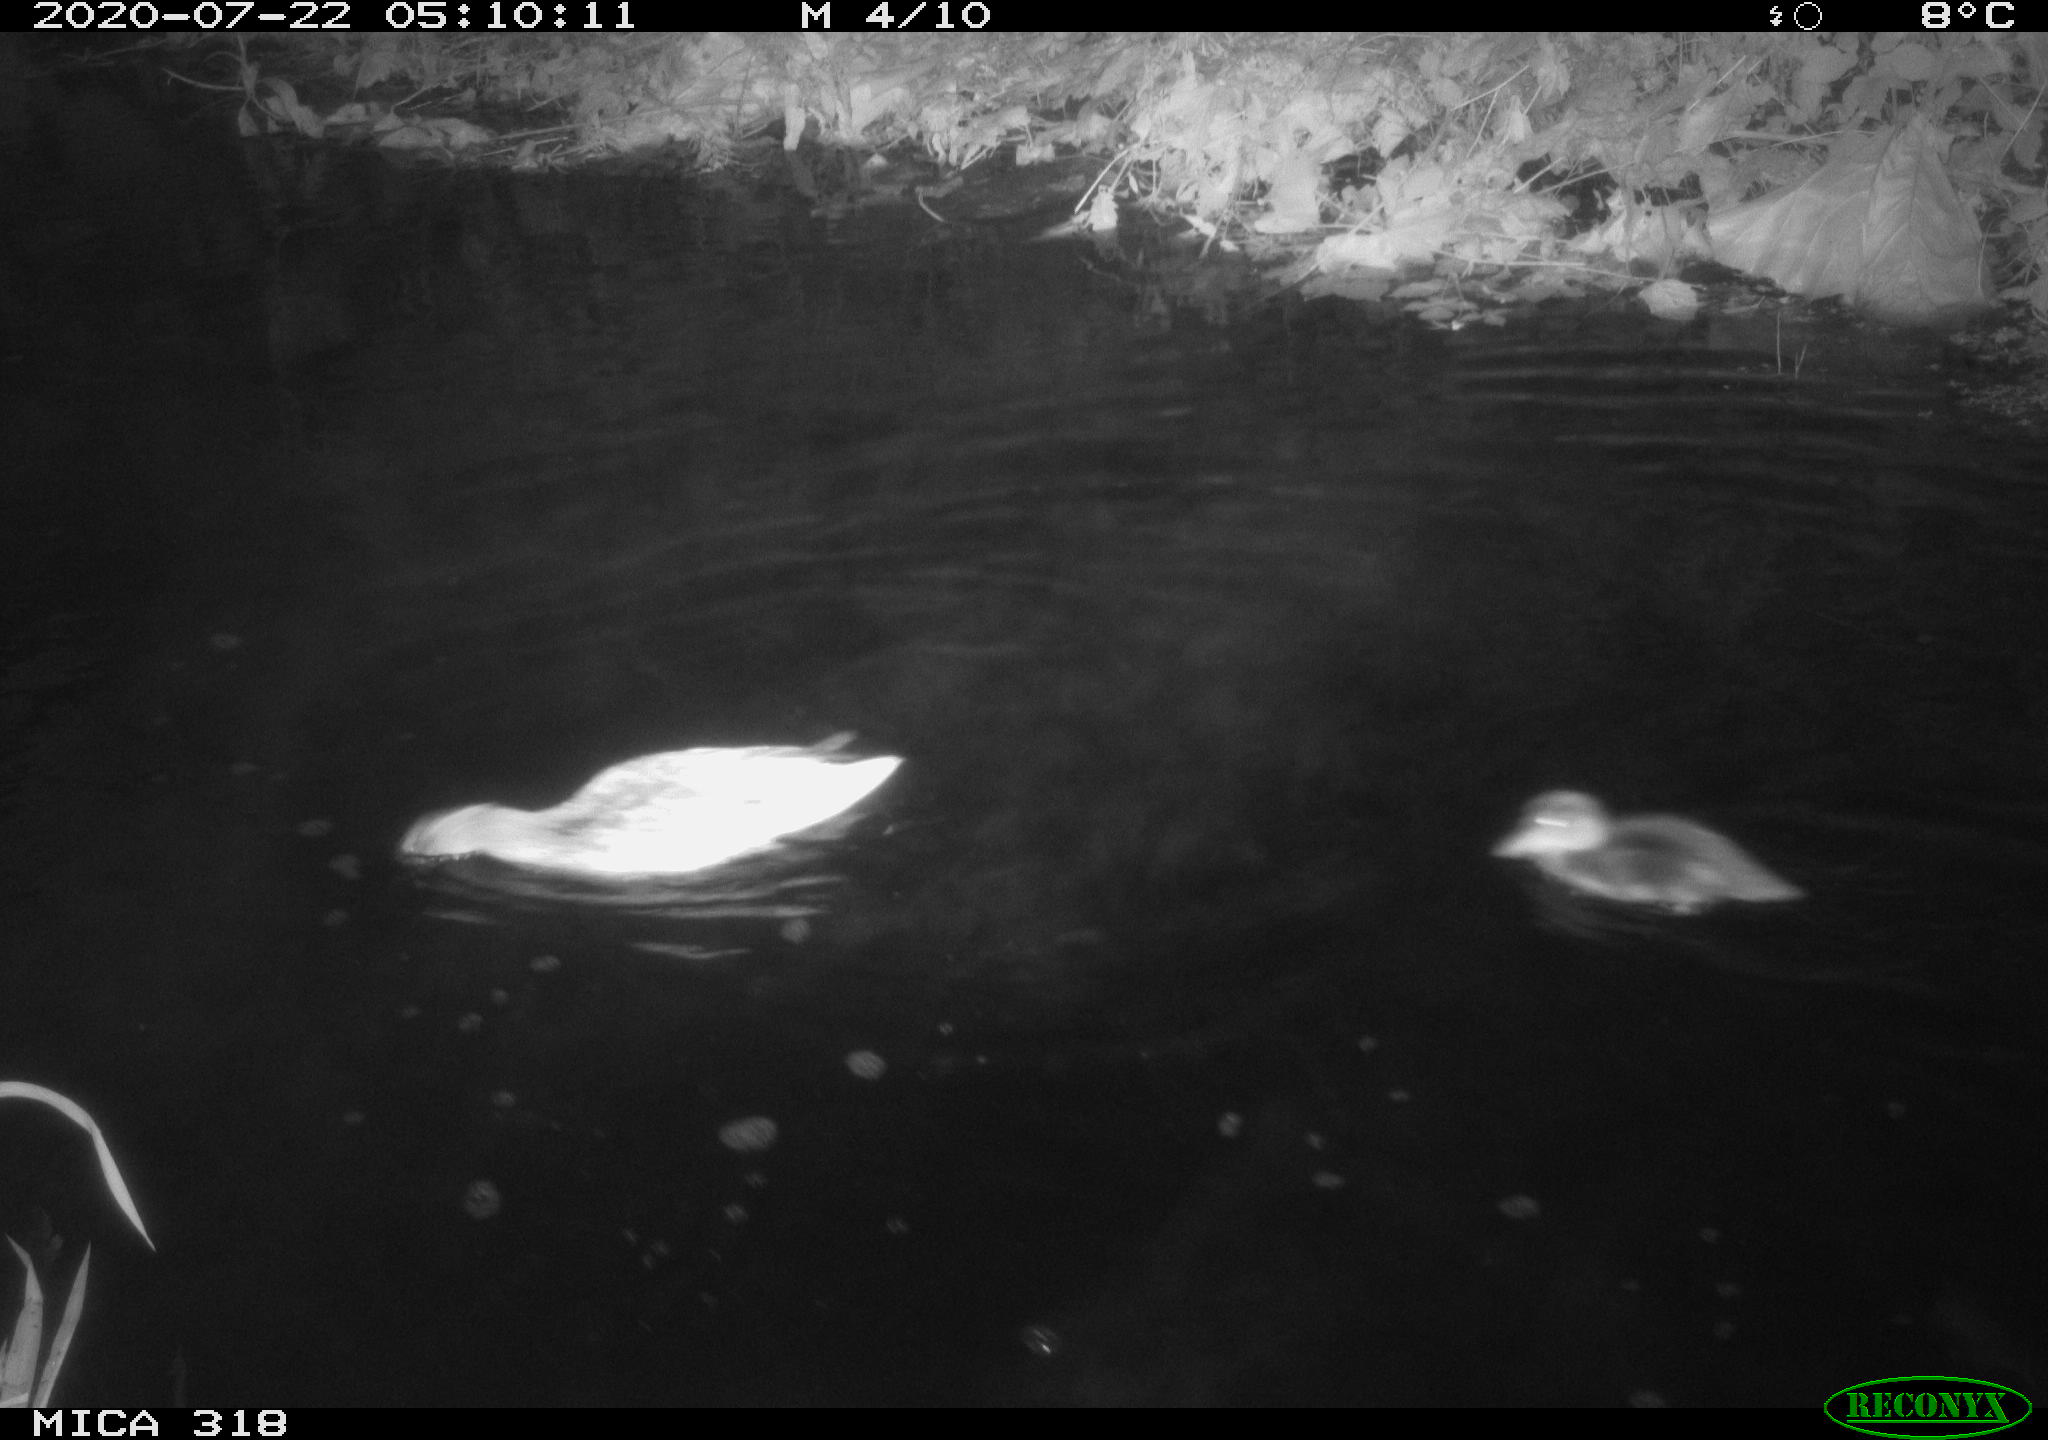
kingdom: Animalia
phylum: Chordata
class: Aves
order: Anseriformes
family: Anatidae
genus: Anas
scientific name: Anas platyrhynchos
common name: Mallard
